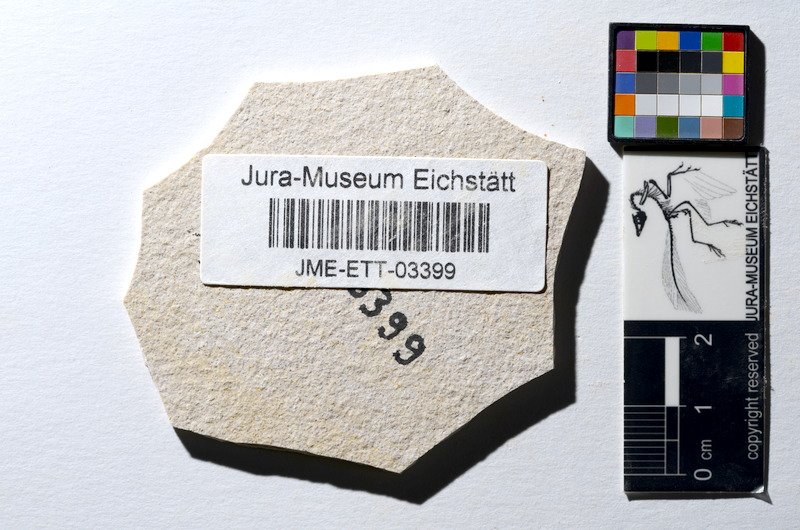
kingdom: Animalia
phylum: Chordata
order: Salmoniformes
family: Orthogonikleithridae
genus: Orthogonikleithrus
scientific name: Orthogonikleithrus hoelli
